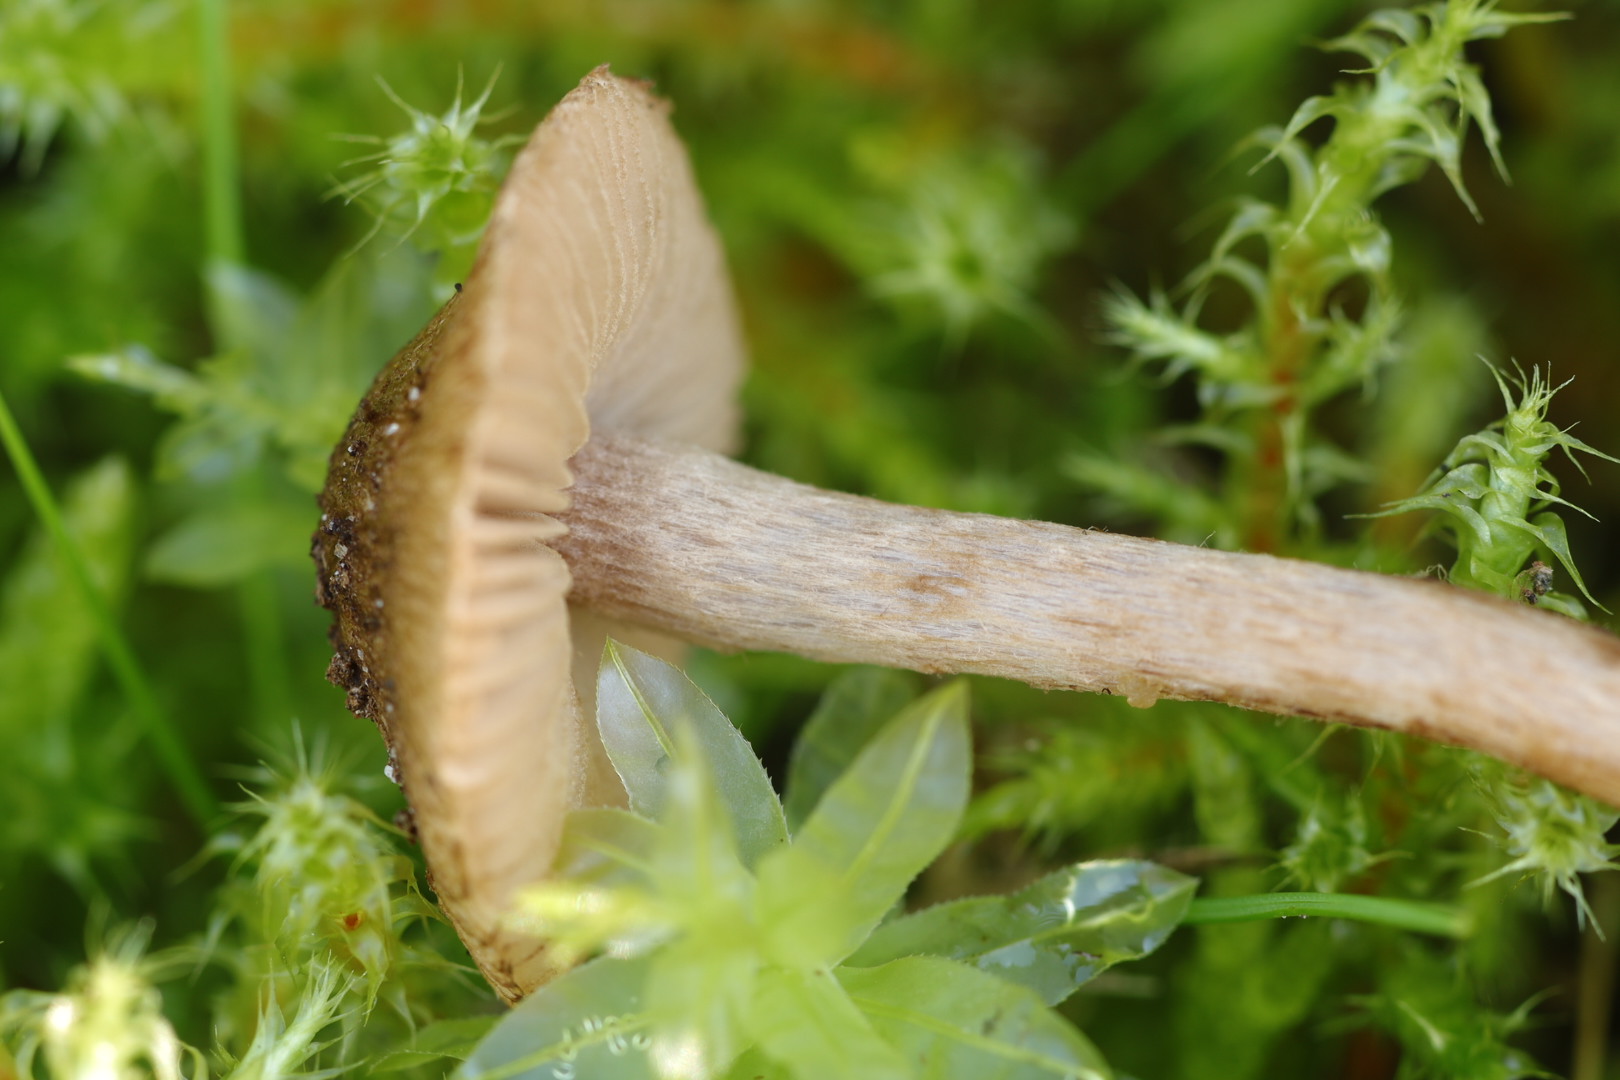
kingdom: Fungi
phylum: Basidiomycota
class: Agaricomycetes
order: Agaricales
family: Inocybaceae
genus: Inocybe
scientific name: Inocybe cincinnata
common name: lillabladet trævlhat
